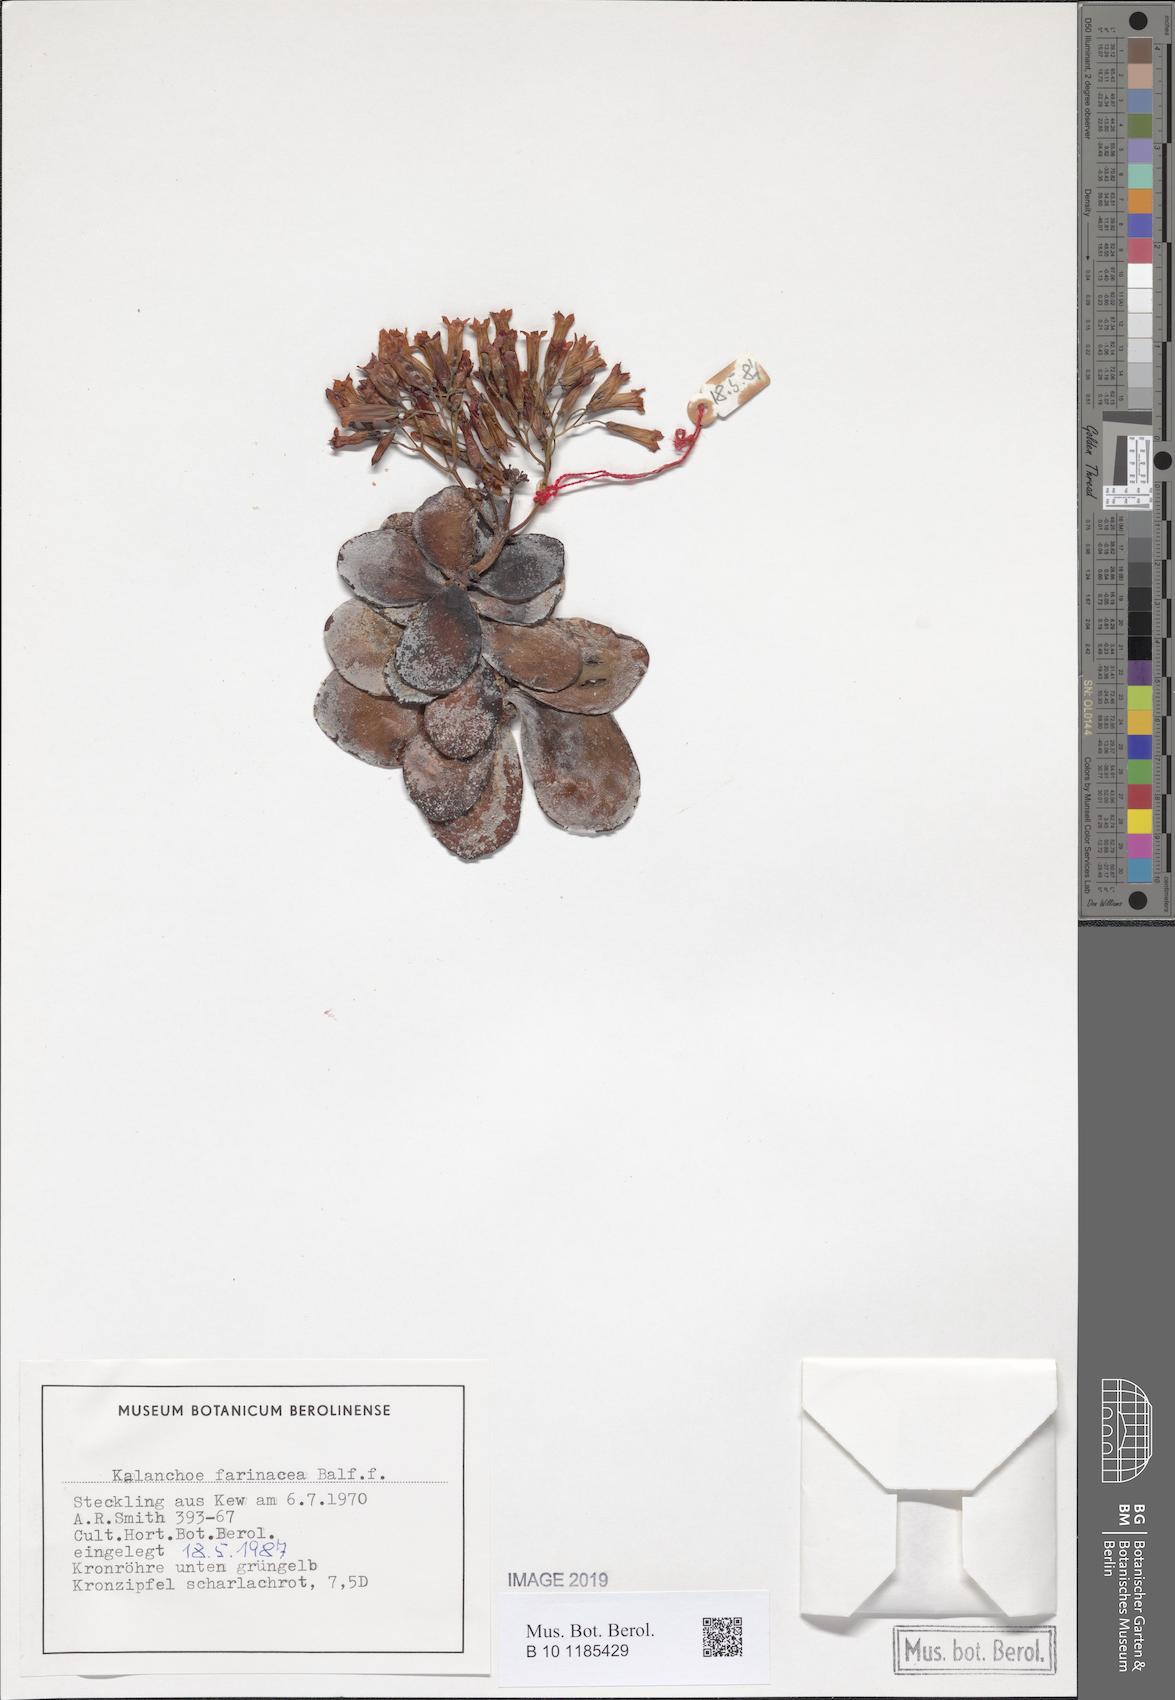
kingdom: Plantae
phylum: Tracheophyta
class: Magnoliopsida
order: Saxifragales
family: Crassulaceae
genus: Kalanchoe
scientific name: Kalanchoe farinacea
